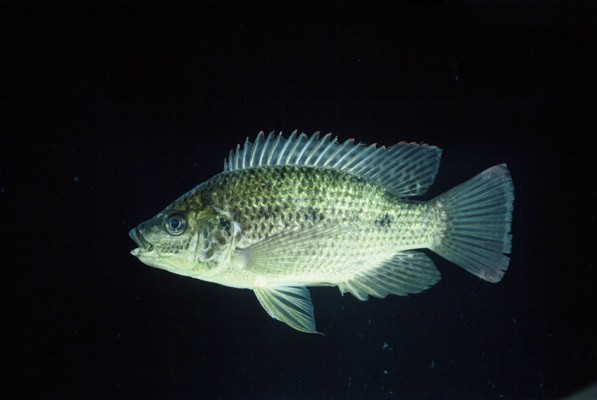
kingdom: Animalia
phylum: Chordata
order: Perciformes
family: Cichlidae
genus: Oreochromis
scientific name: Oreochromis mossambicus
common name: Mozambique tilapia
